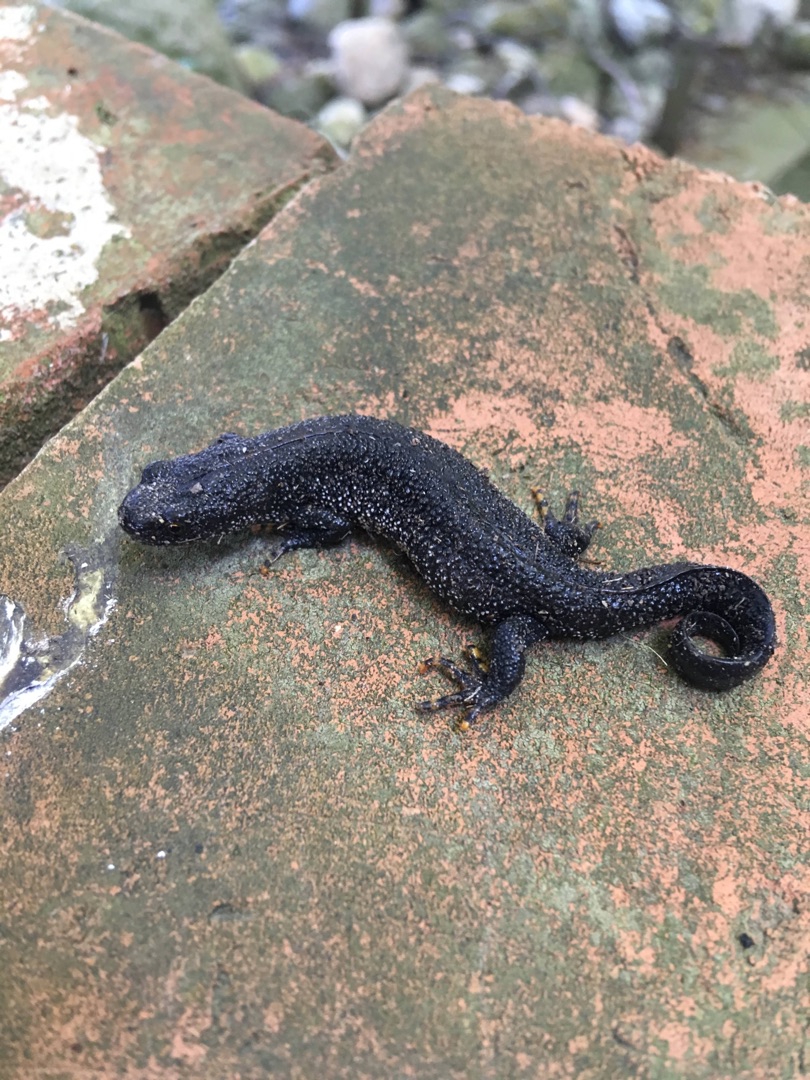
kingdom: Animalia
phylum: Chordata
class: Amphibia
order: Caudata
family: Salamandridae
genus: Triturus
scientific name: Triturus cristatus
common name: Stor vandsalamander
